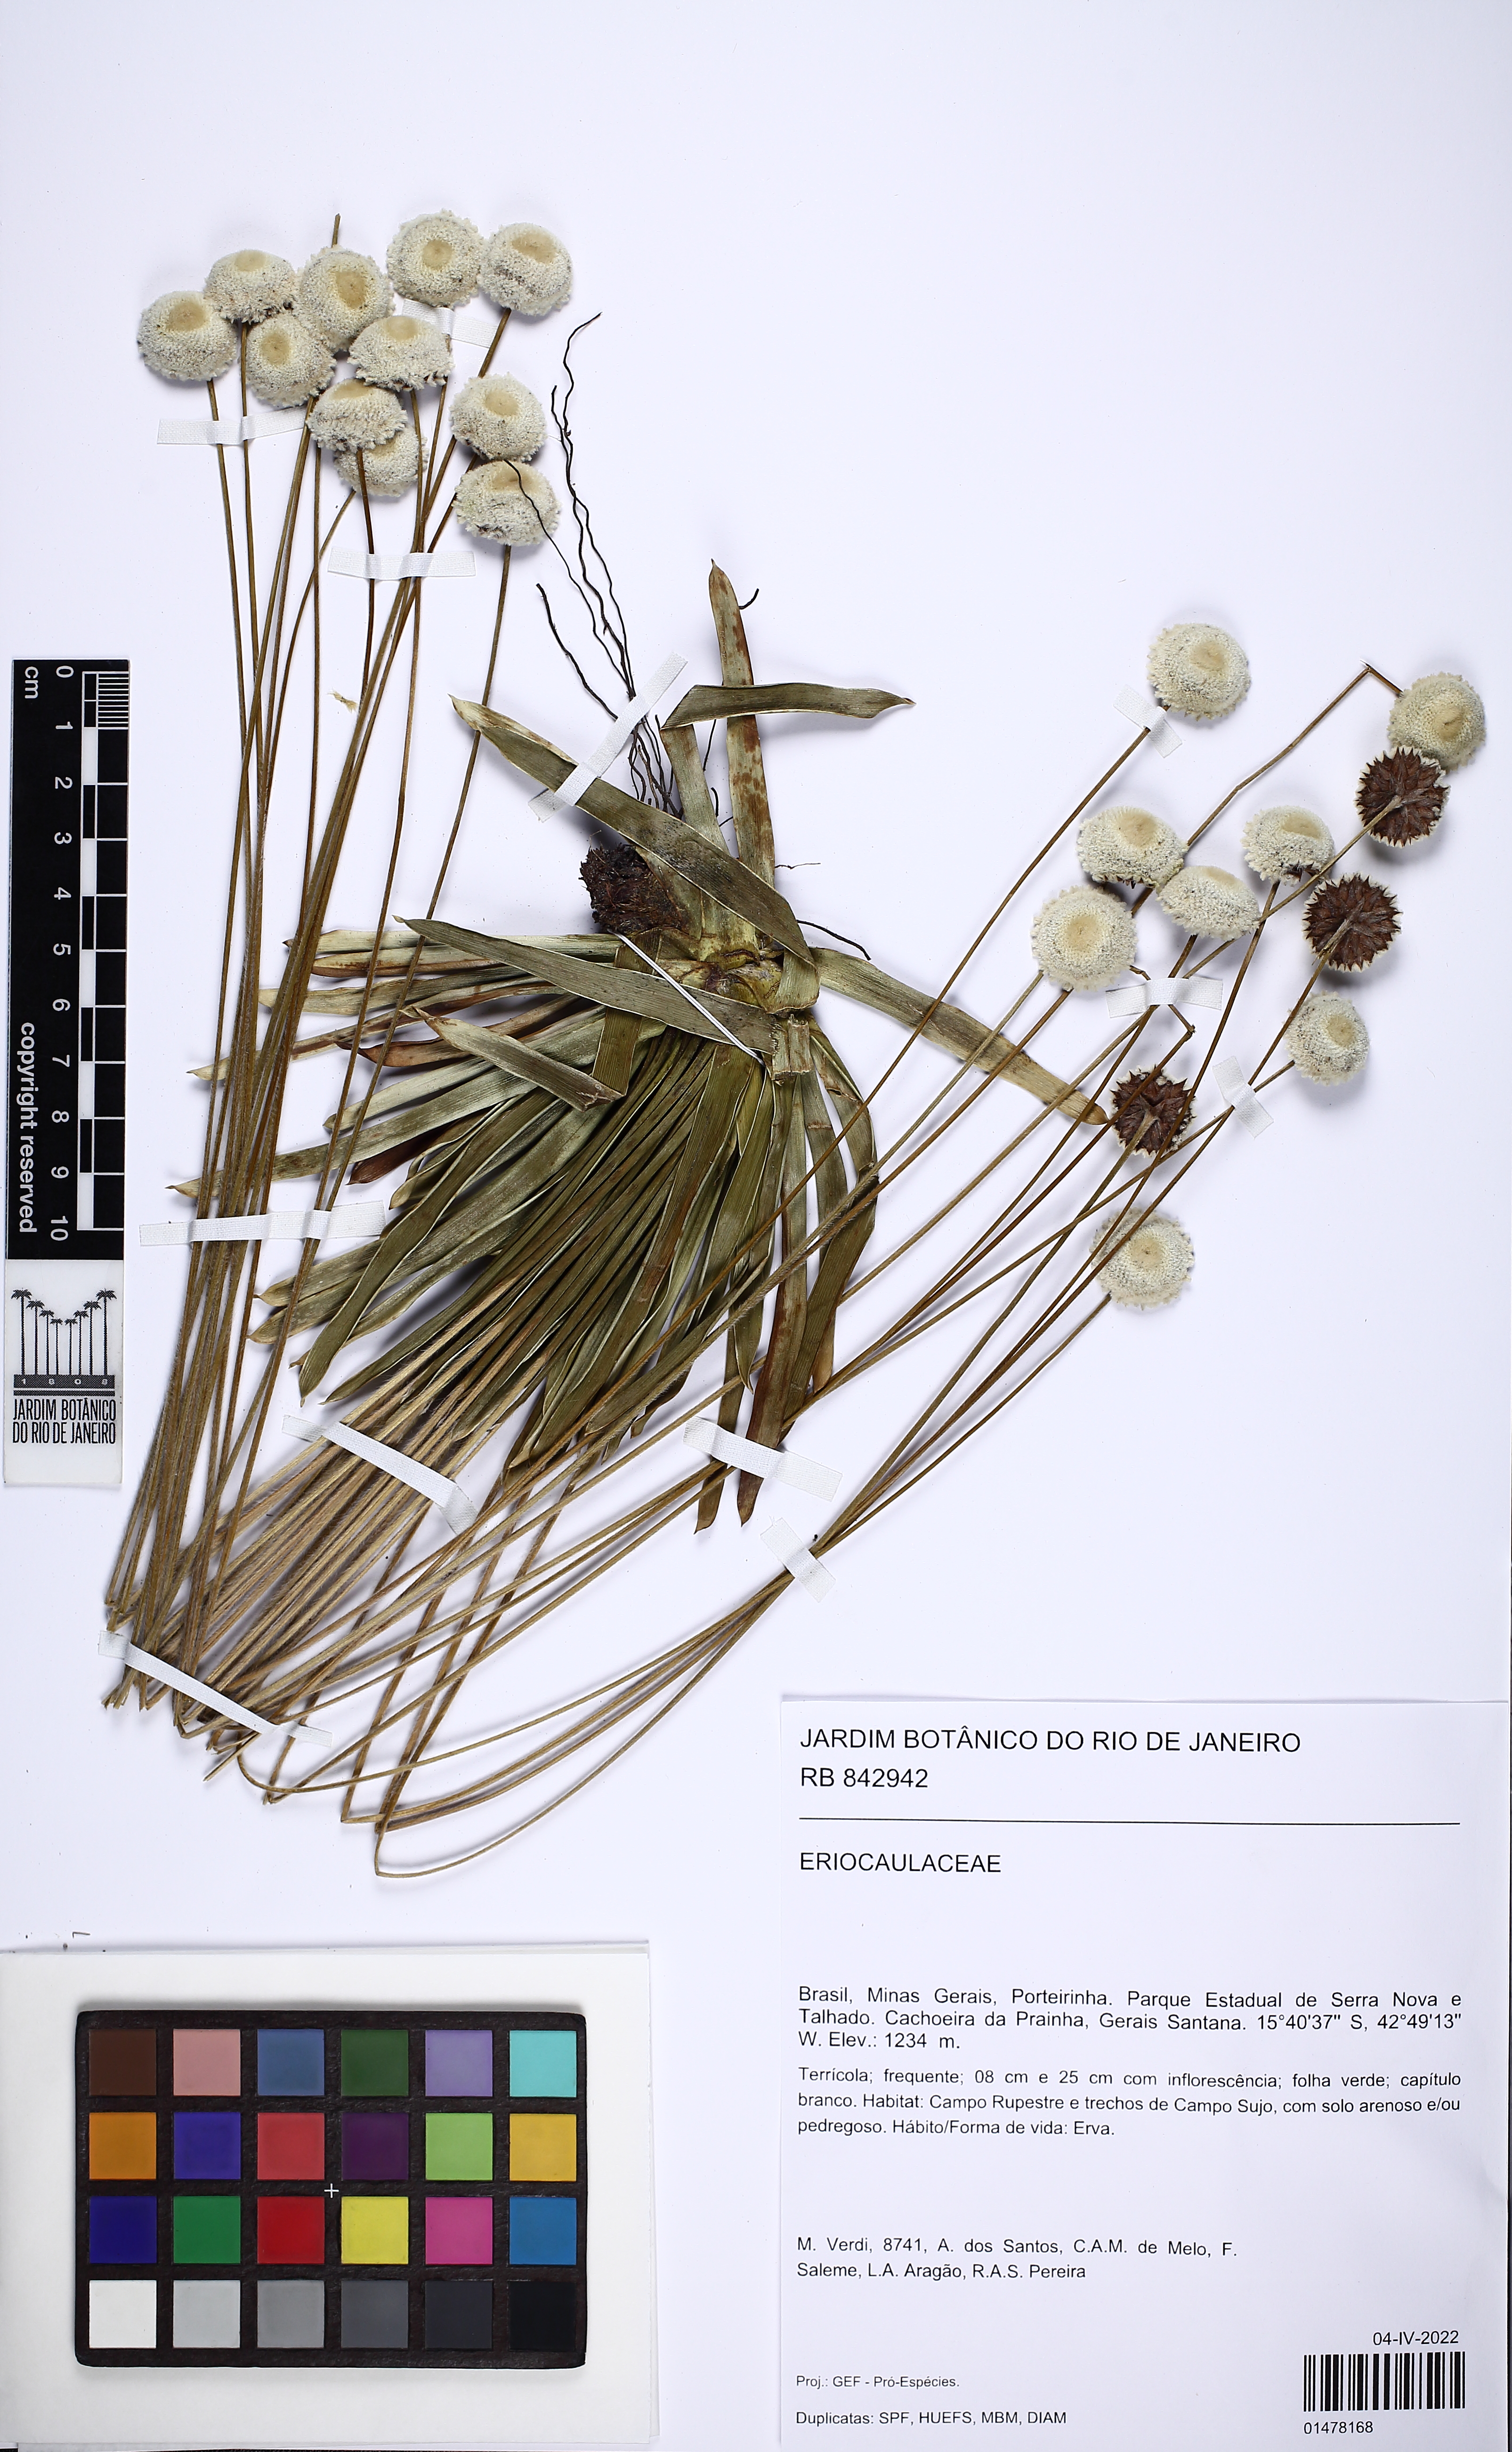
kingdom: Plantae
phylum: Tracheophyta
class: Liliopsida
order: Poales
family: Eriocaulaceae
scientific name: Eriocaulaceae
